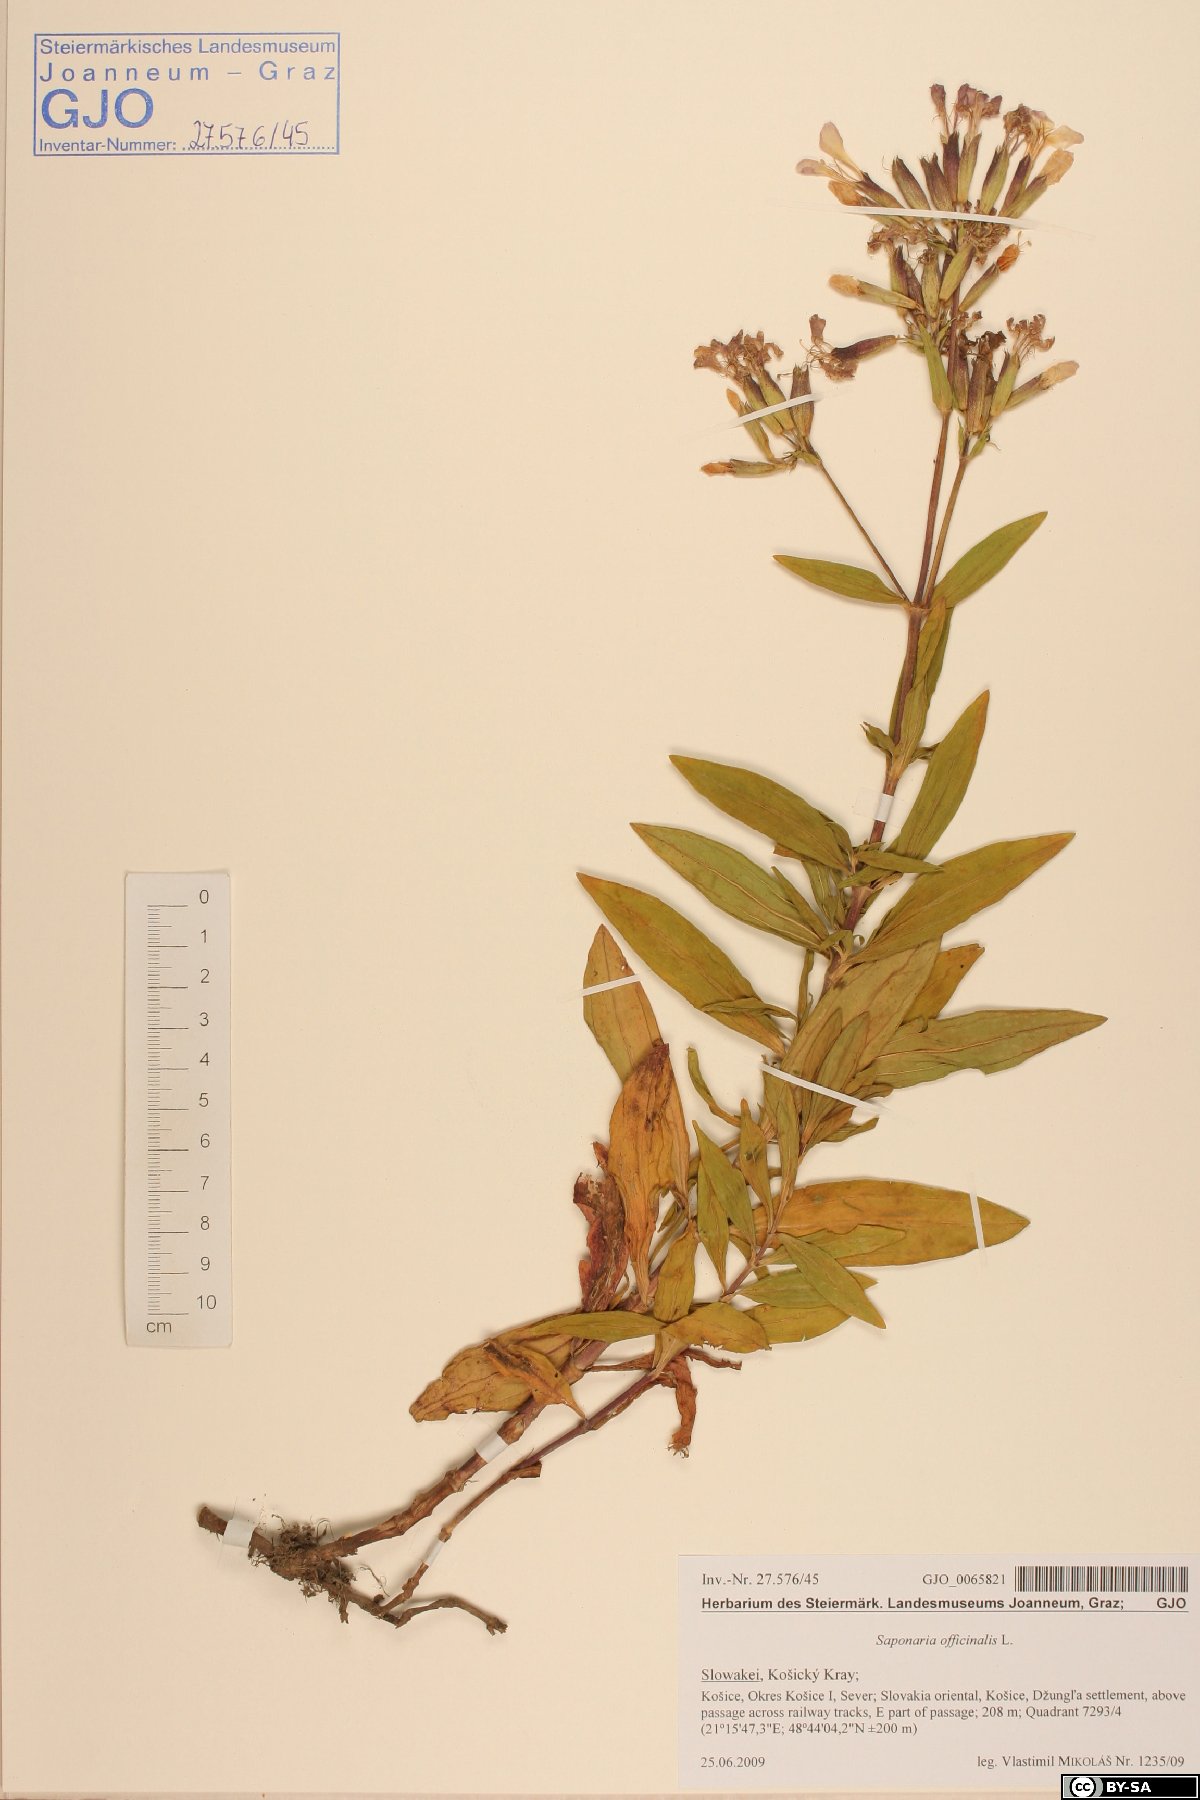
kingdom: Plantae
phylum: Tracheophyta
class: Magnoliopsida
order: Caryophyllales
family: Caryophyllaceae
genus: Saponaria
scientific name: Saponaria officinalis
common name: Soapwort
